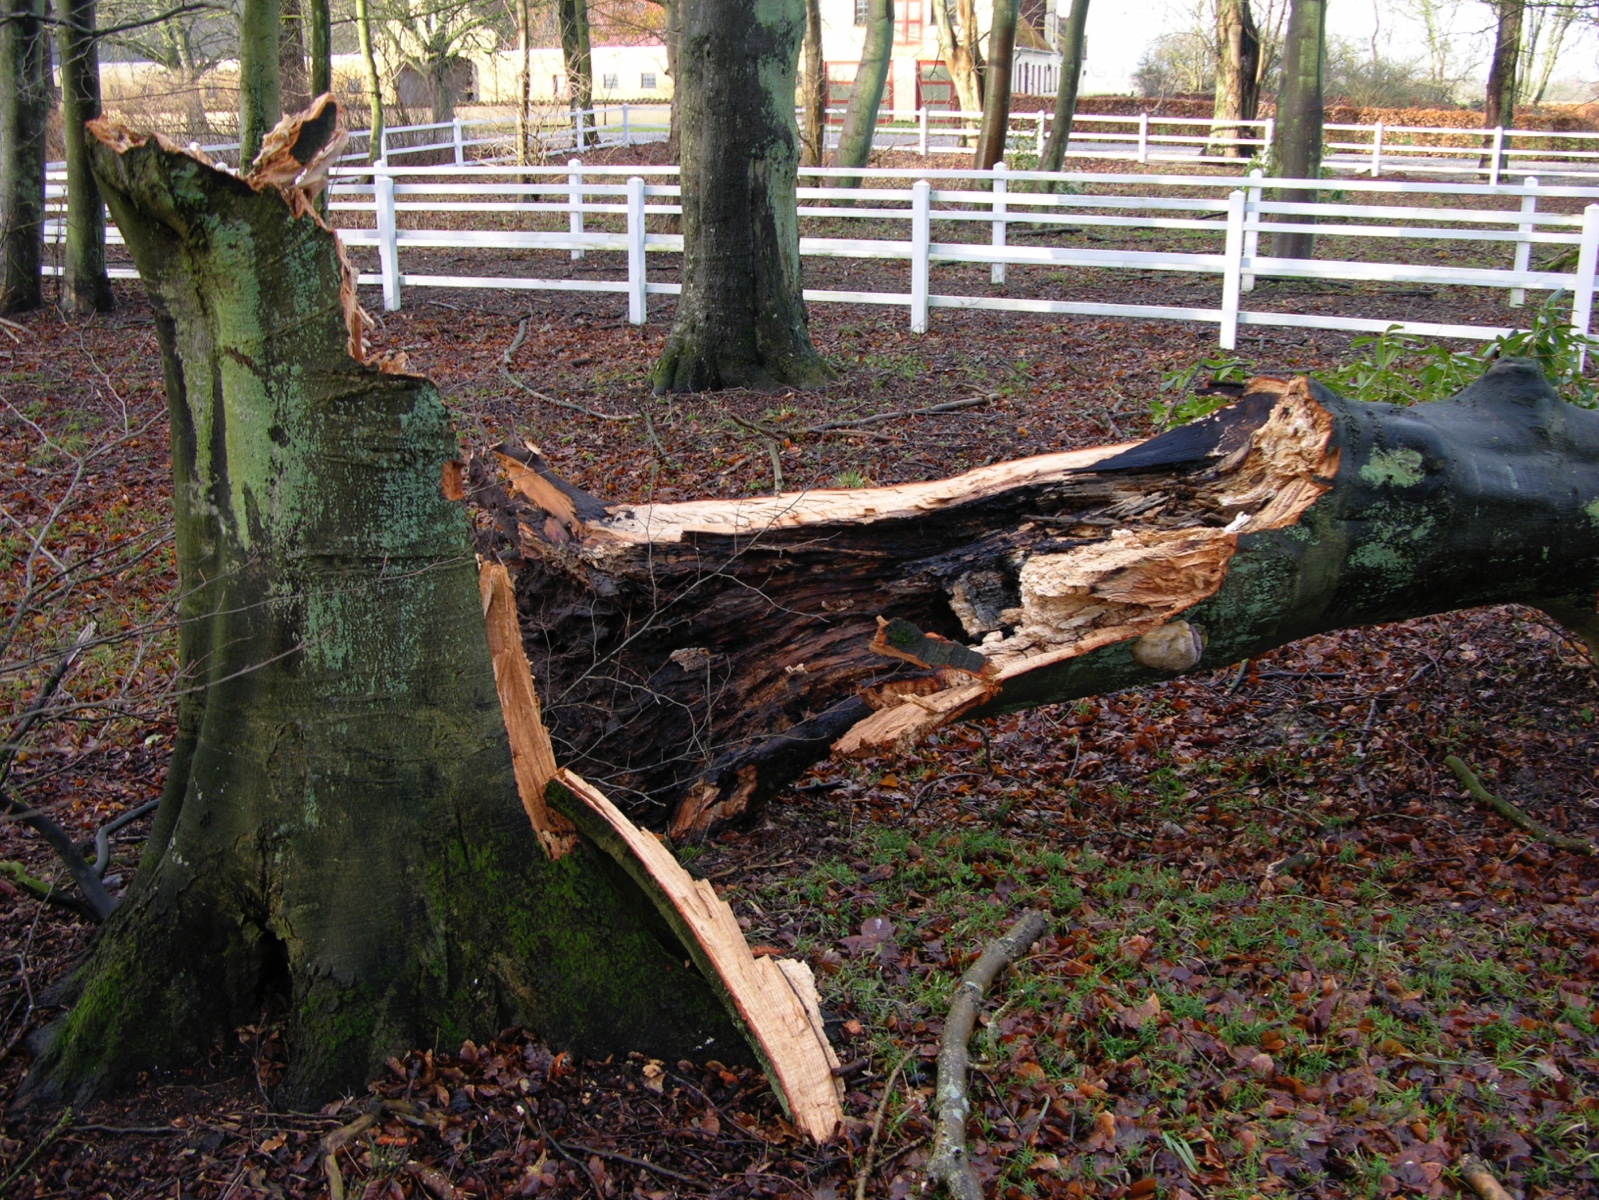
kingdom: Fungi
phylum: Basidiomycota
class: Agaricomycetes
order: Polyporales
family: Polyporaceae
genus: Ganoderma
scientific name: Ganoderma pfeifferi
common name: kobberrød lakporesvamp
